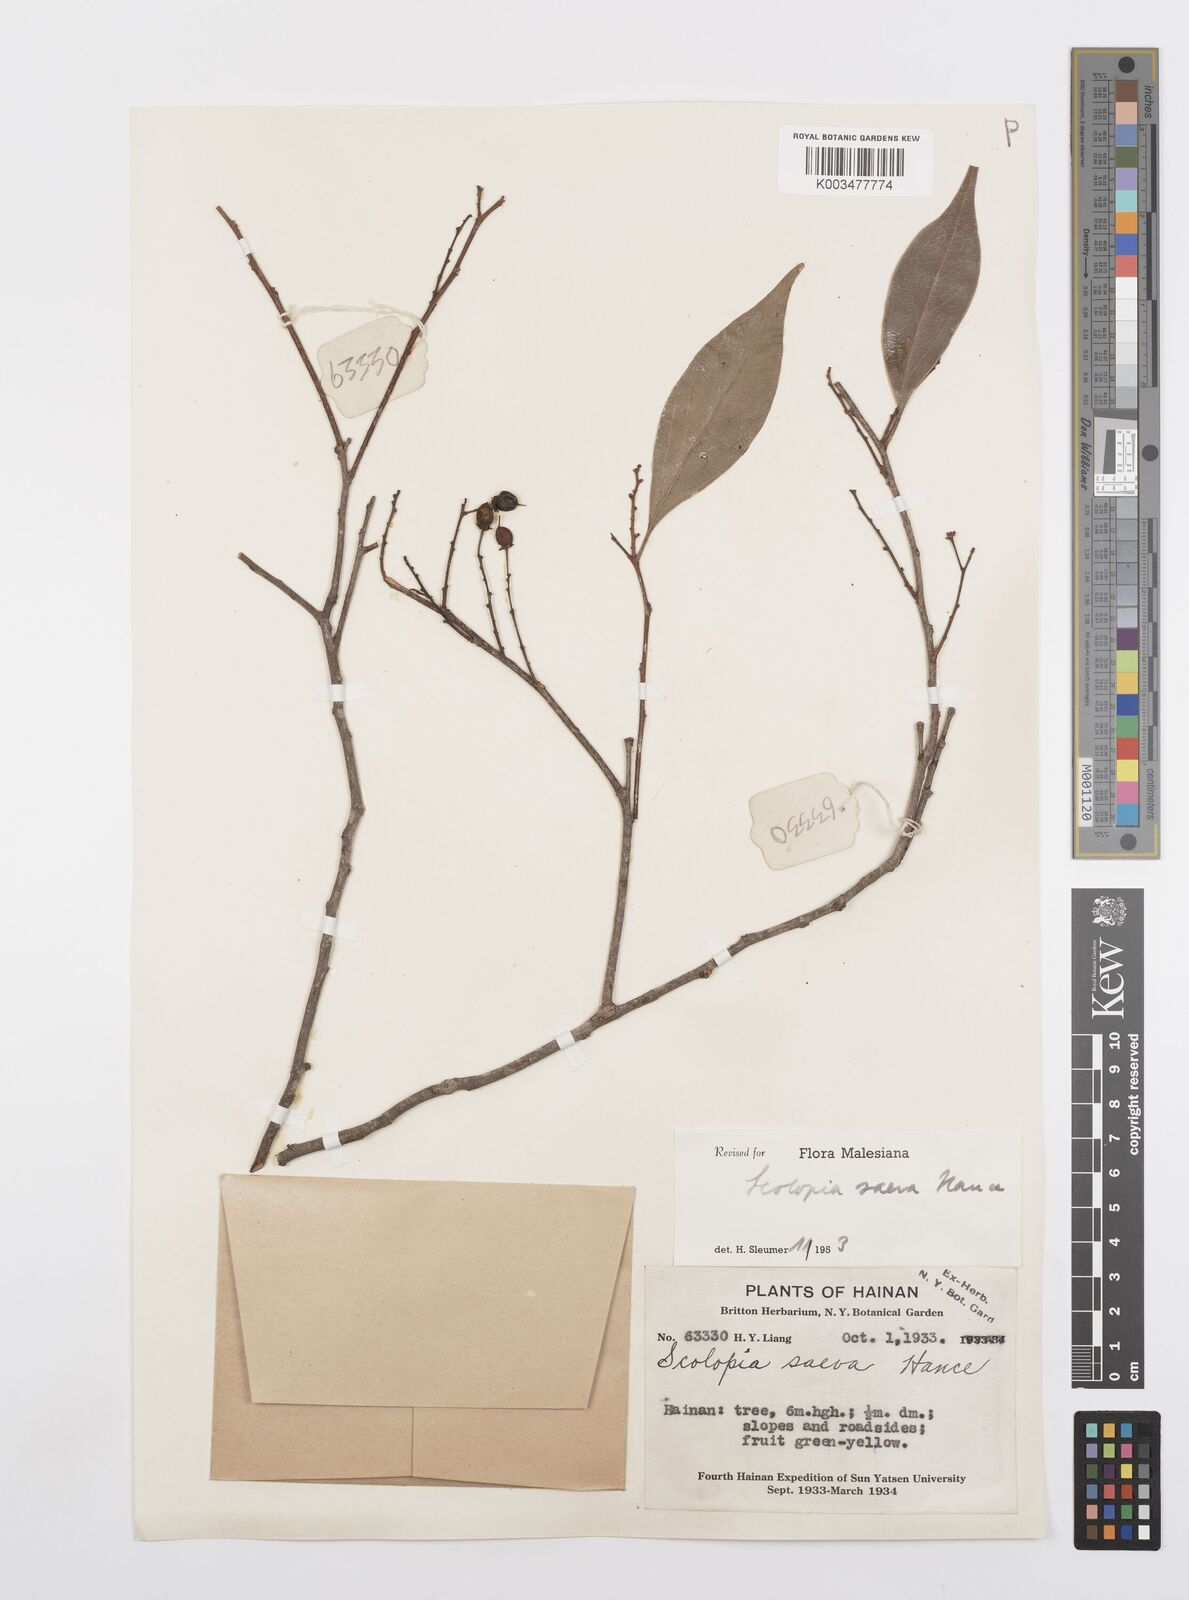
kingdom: Plantae
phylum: Tracheophyta
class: Magnoliopsida
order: Malpighiales
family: Salicaceae
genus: Scolopia
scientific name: Scolopia saeva
